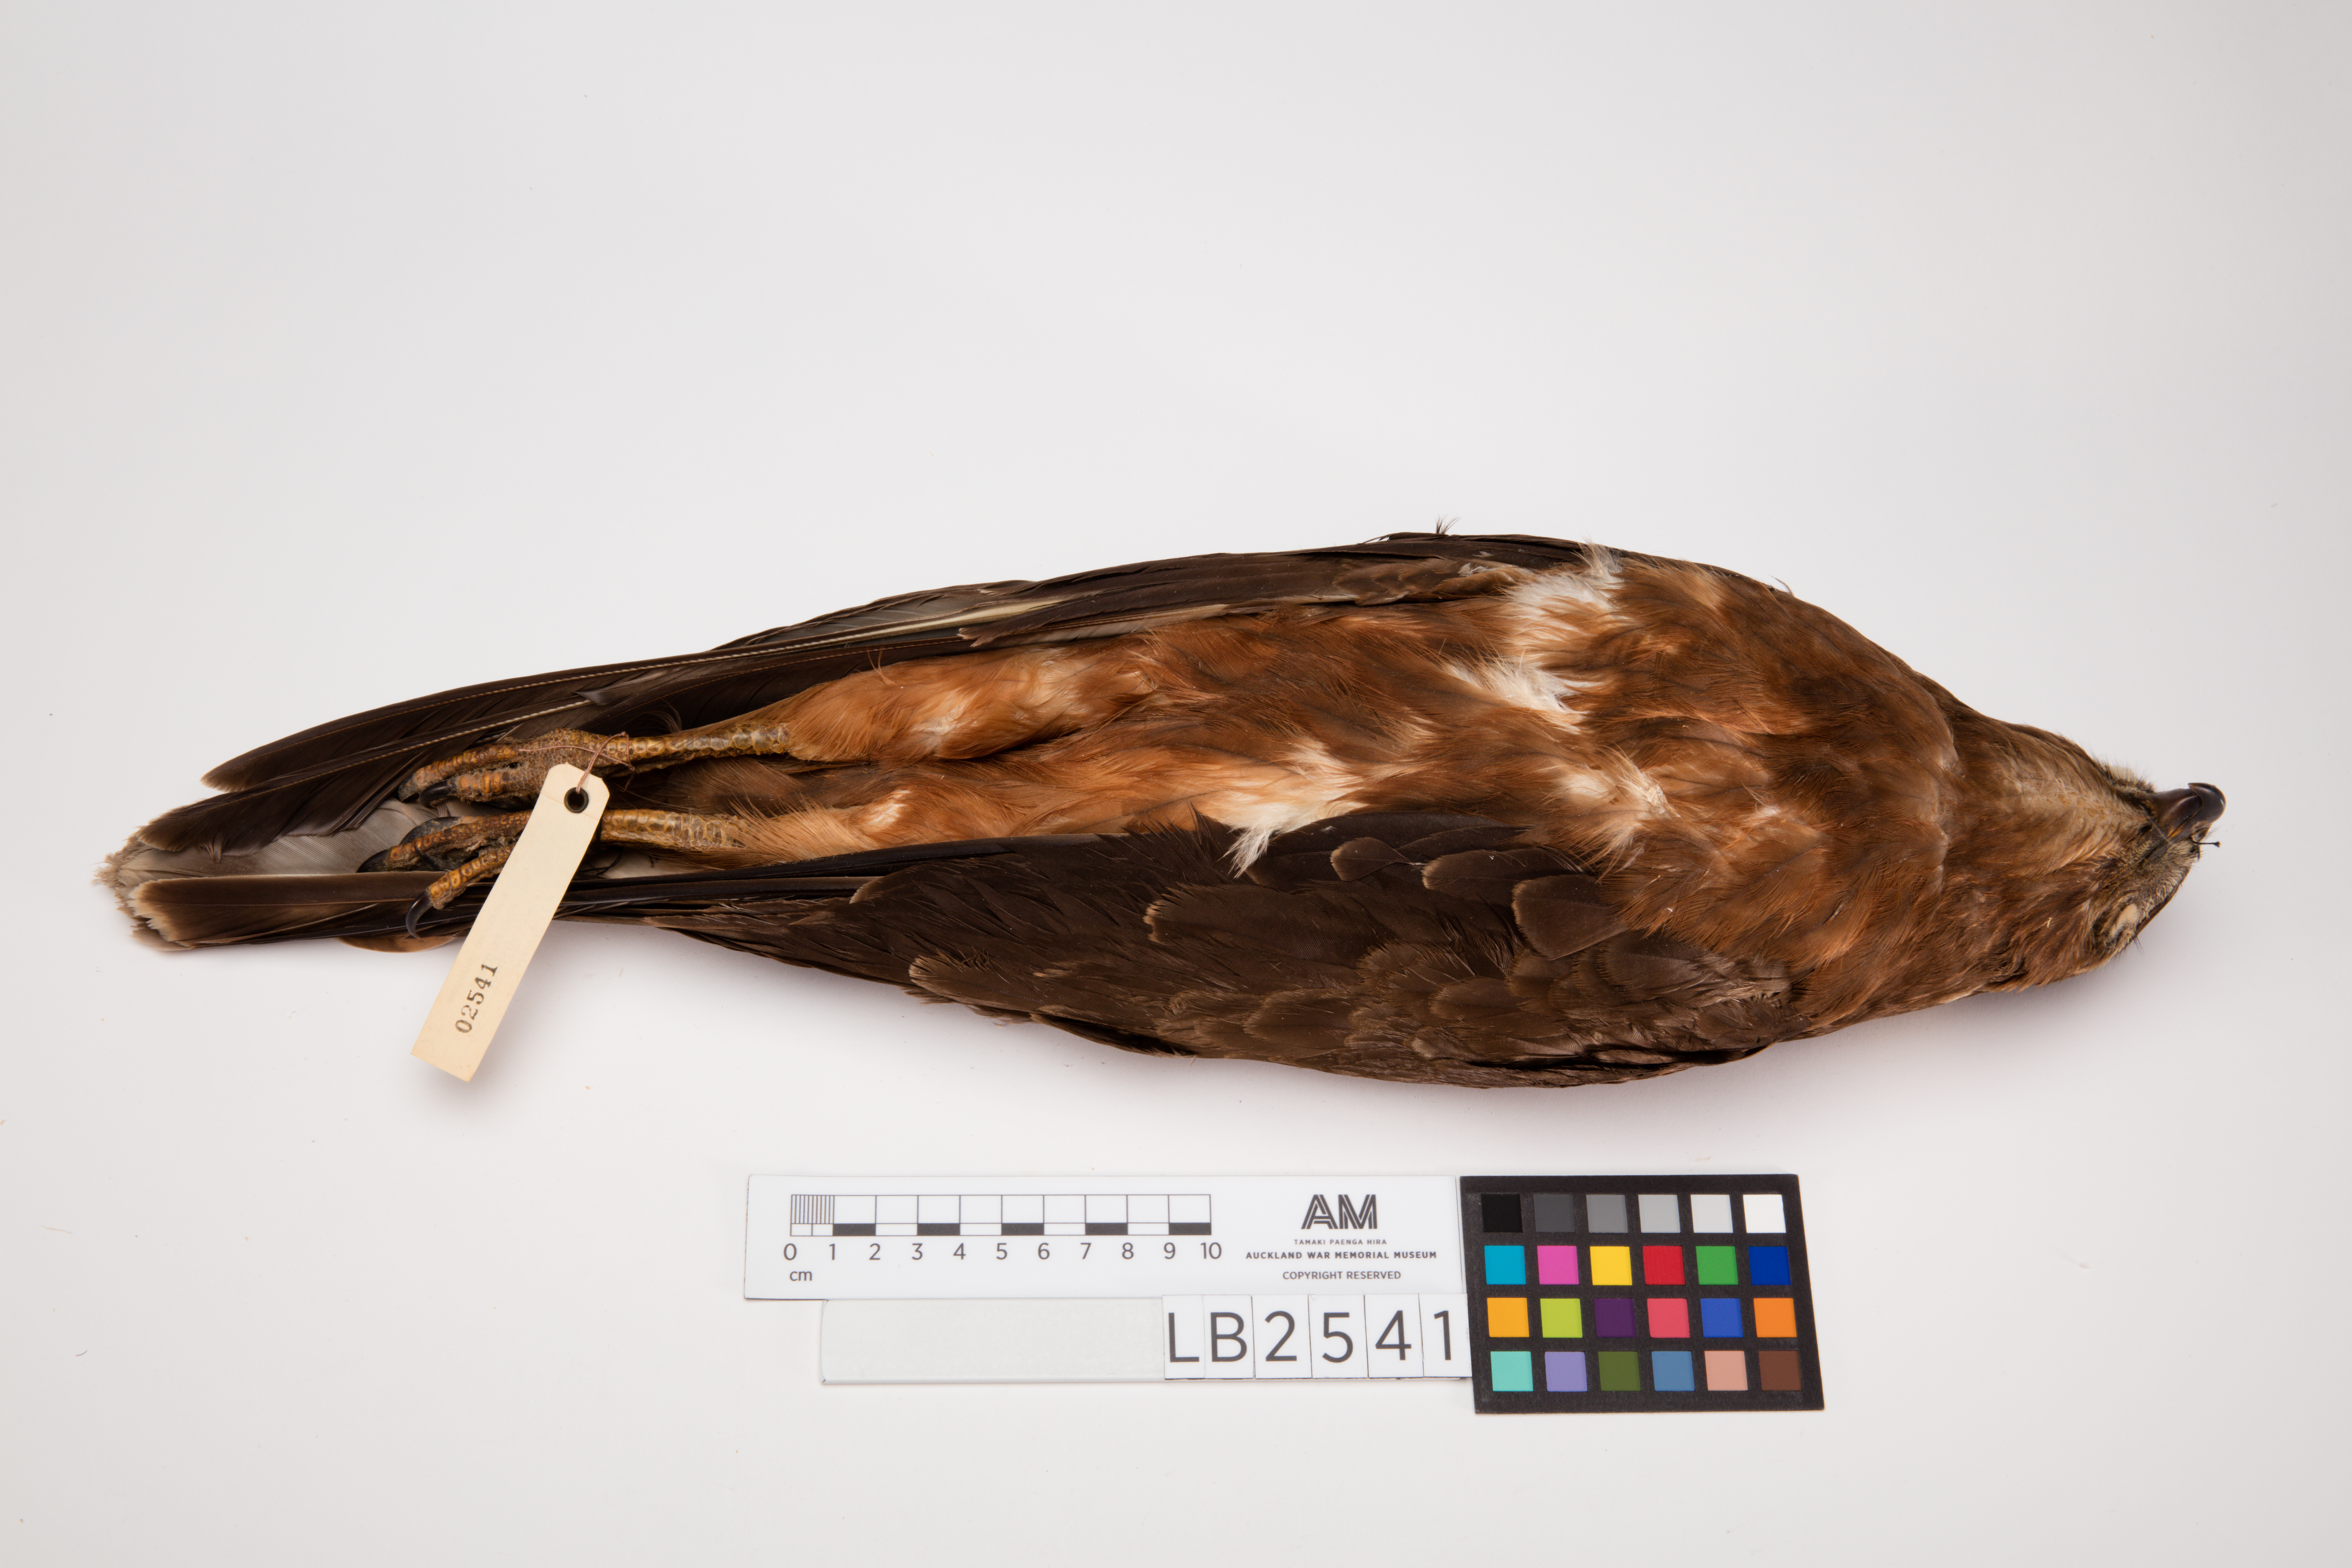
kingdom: Animalia
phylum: Chordata
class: Aves
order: Accipitriformes
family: Accipitridae
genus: Circus
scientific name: Circus approximans
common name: Swamp harrier
